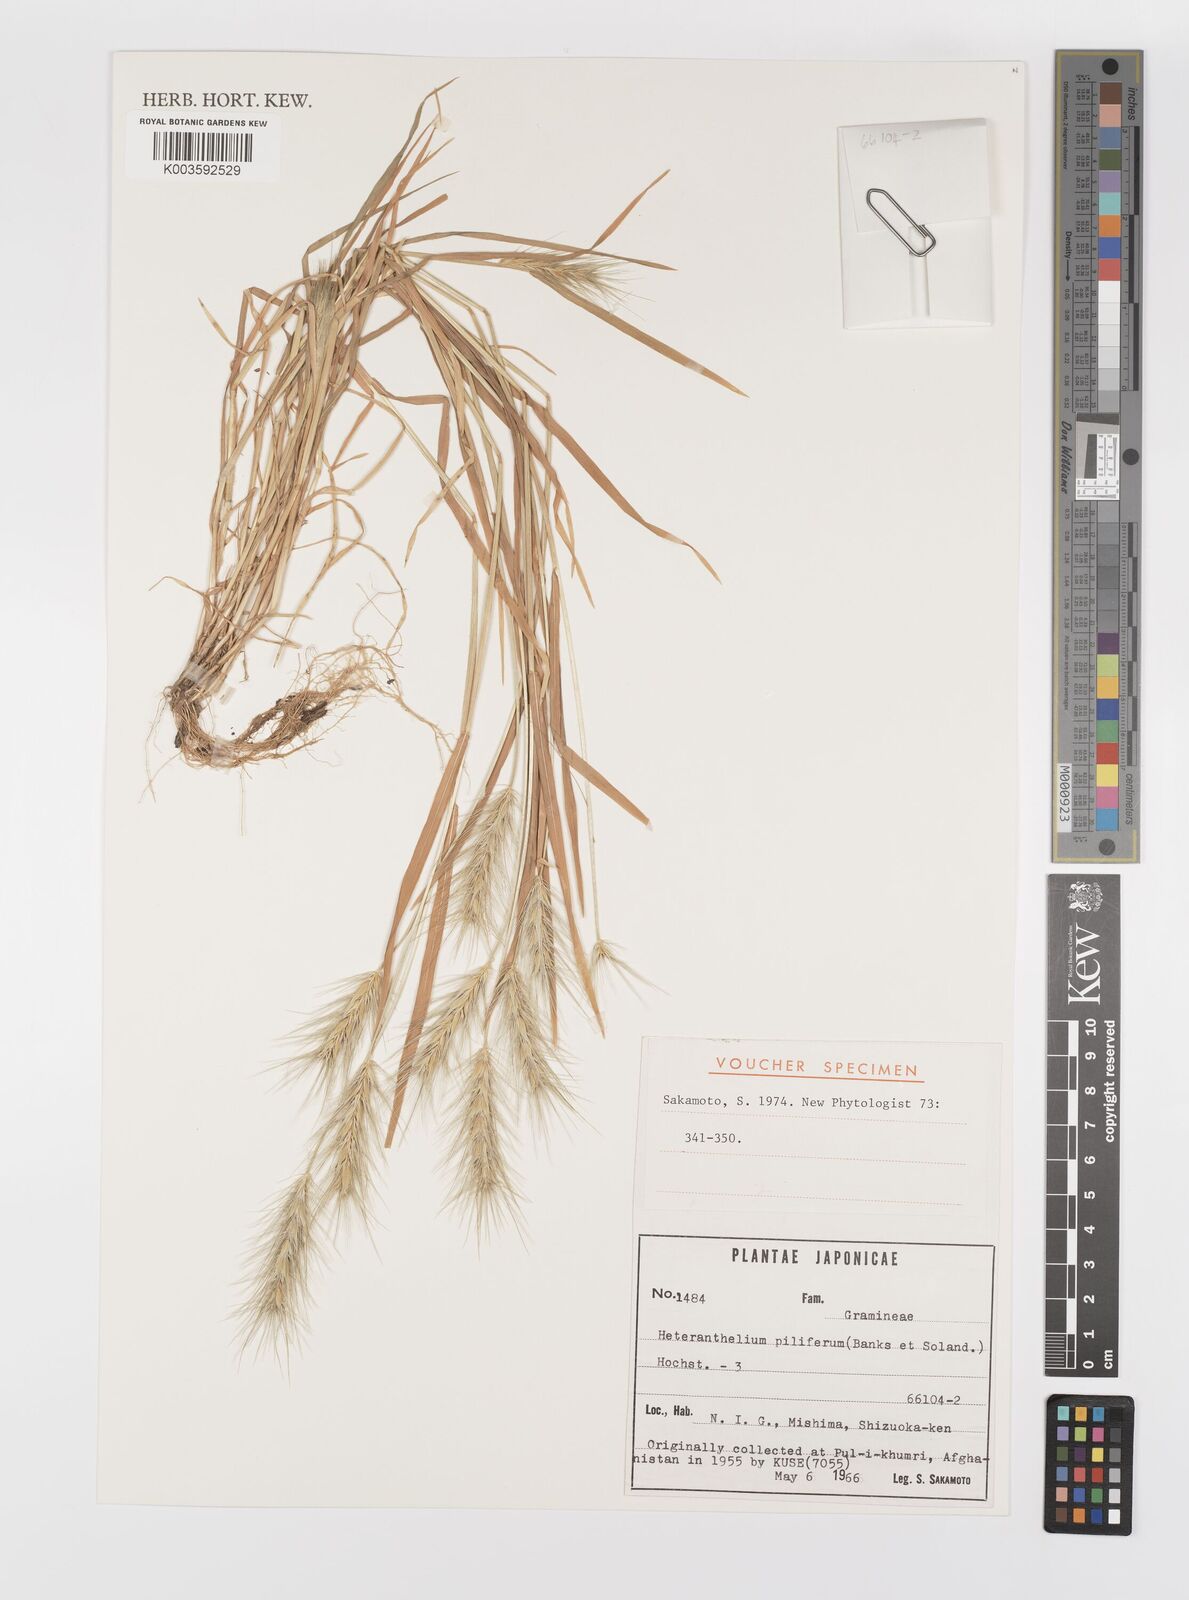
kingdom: Plantae
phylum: Tracheophyta
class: Liliopsida
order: Poales
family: Poaceae
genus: Heteranthelium
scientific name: Heteranthelium piliferum
